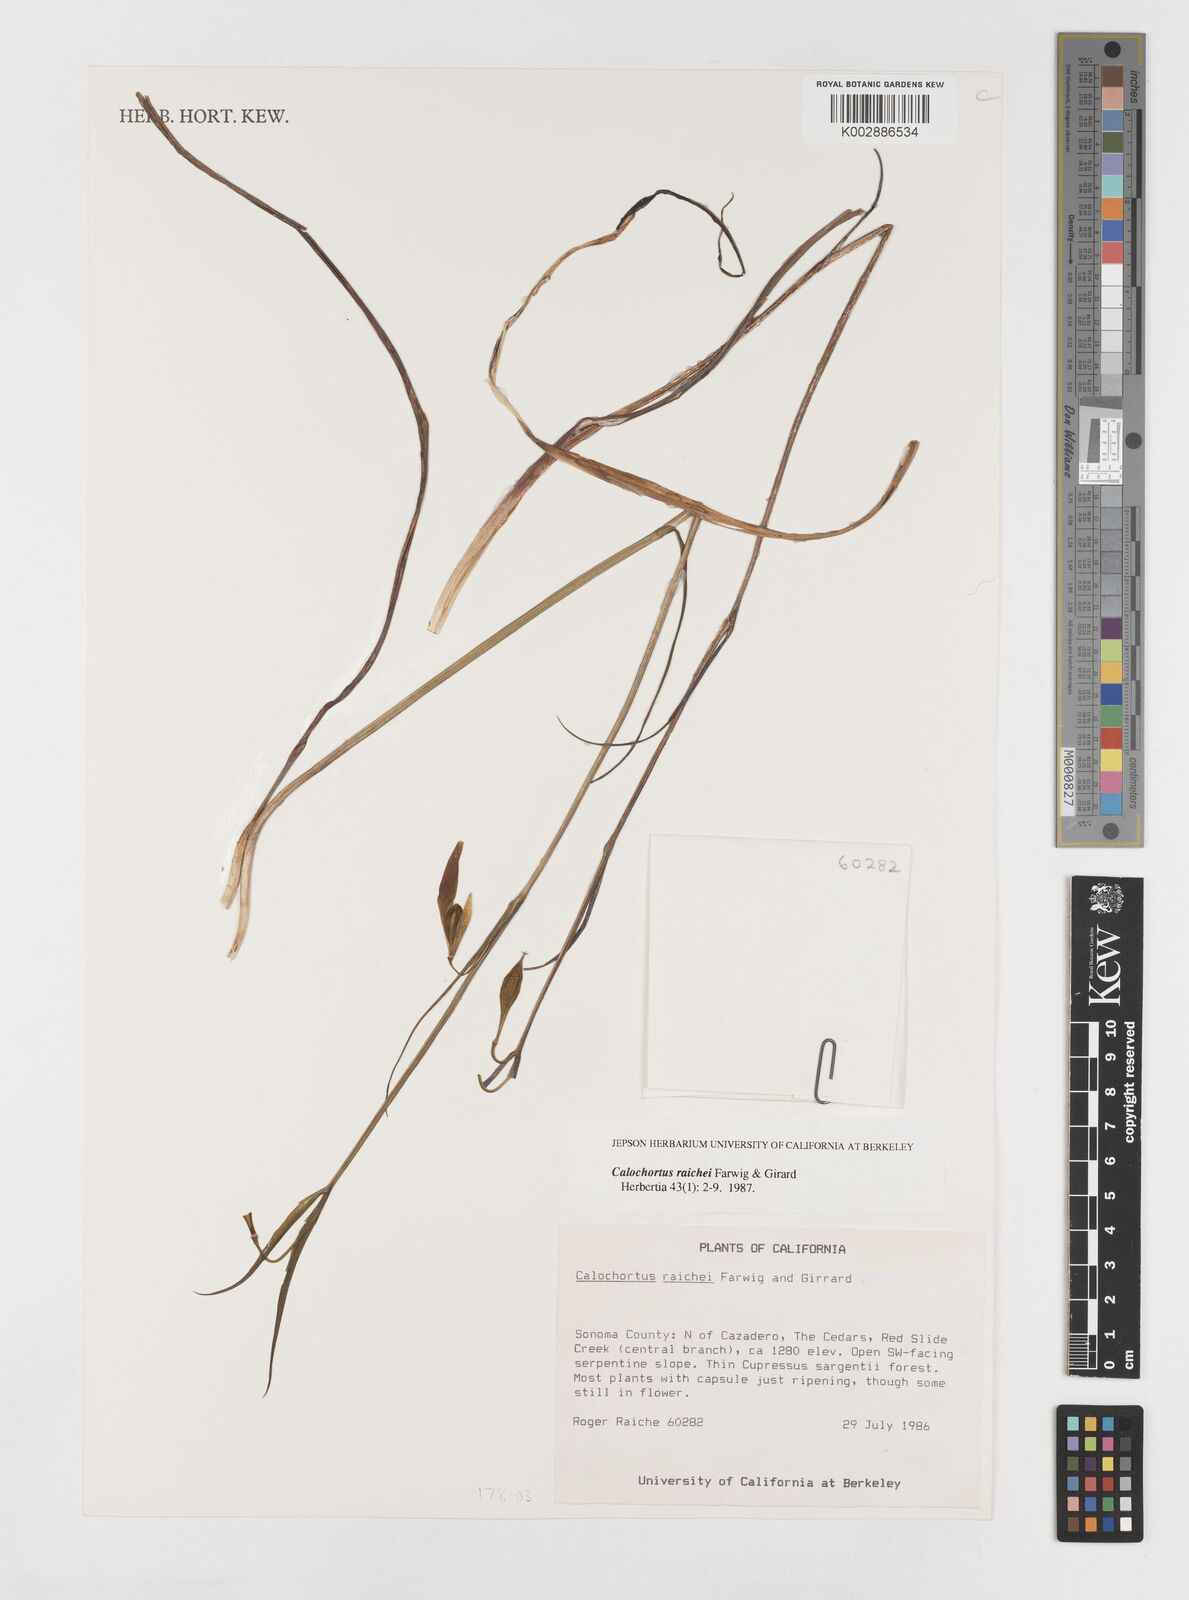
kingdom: Plantae
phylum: Tracheophyta
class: Liliopsida
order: Liliales
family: Liliaceae
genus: Calochortus
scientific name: Calochortus raichei
